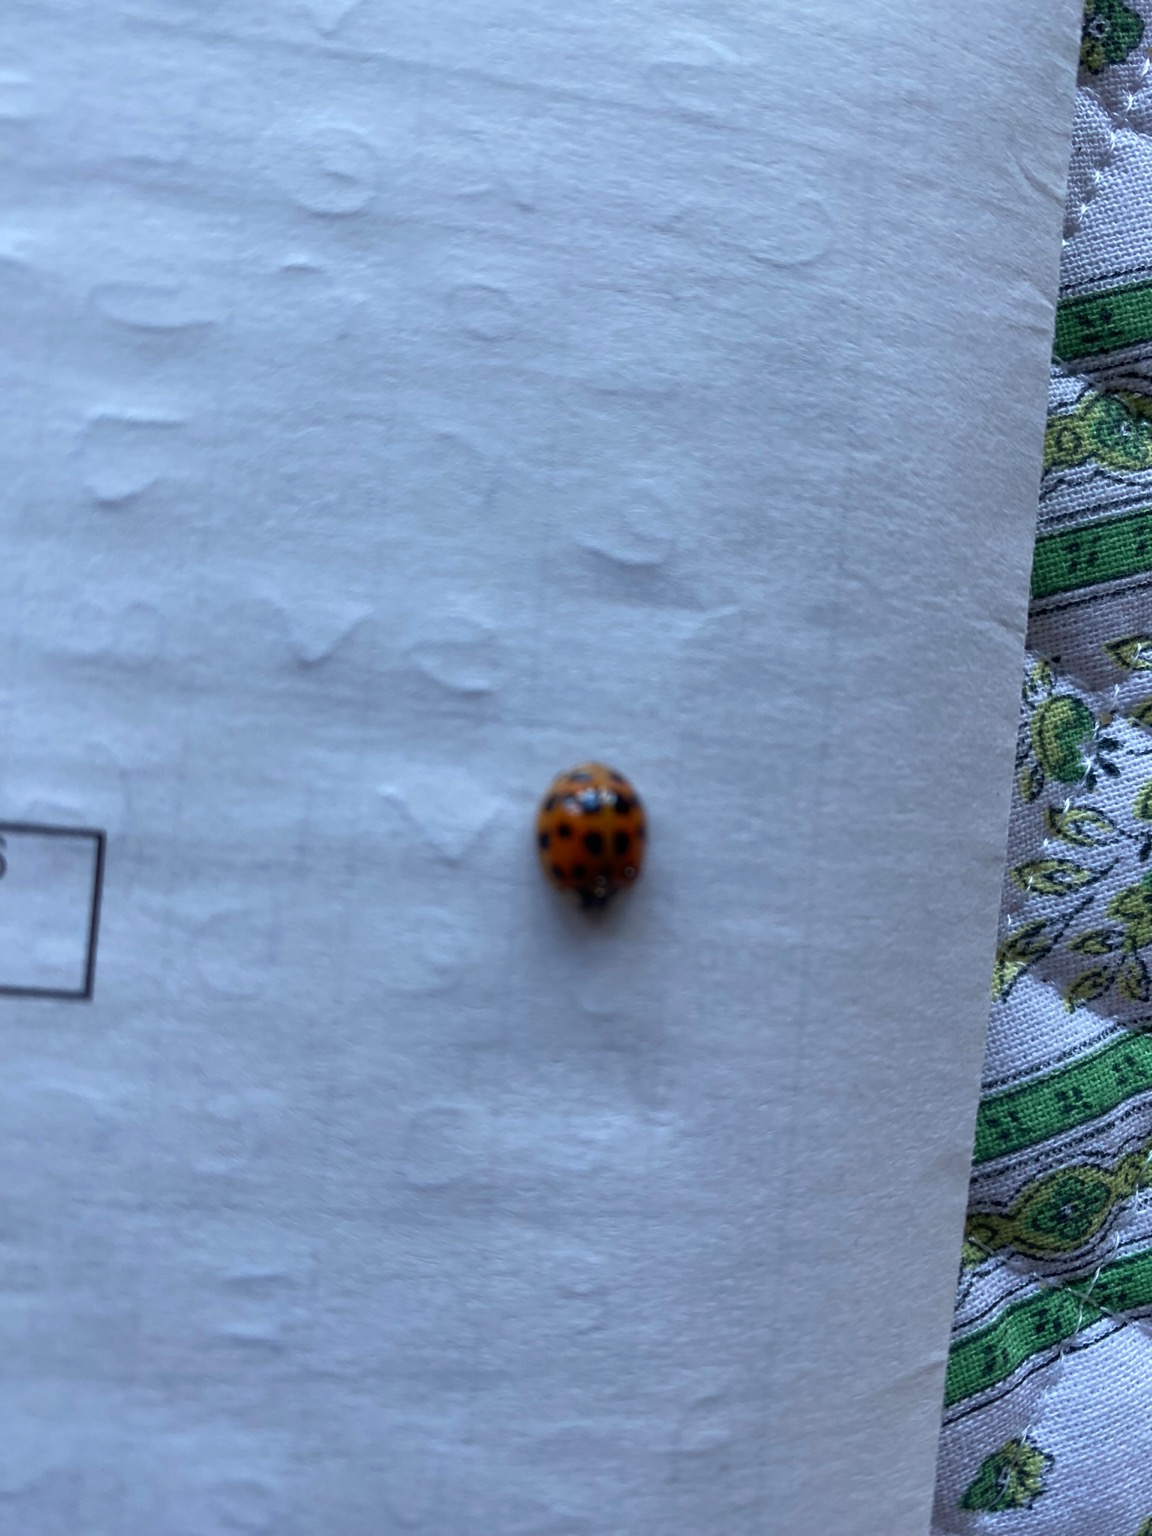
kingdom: Animalia
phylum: Arthropoda
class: Insecta
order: Coleoptera
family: Coccinellidae
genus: Harmonia
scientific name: Harmonia axyridis
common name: Harlekinmariehøne
